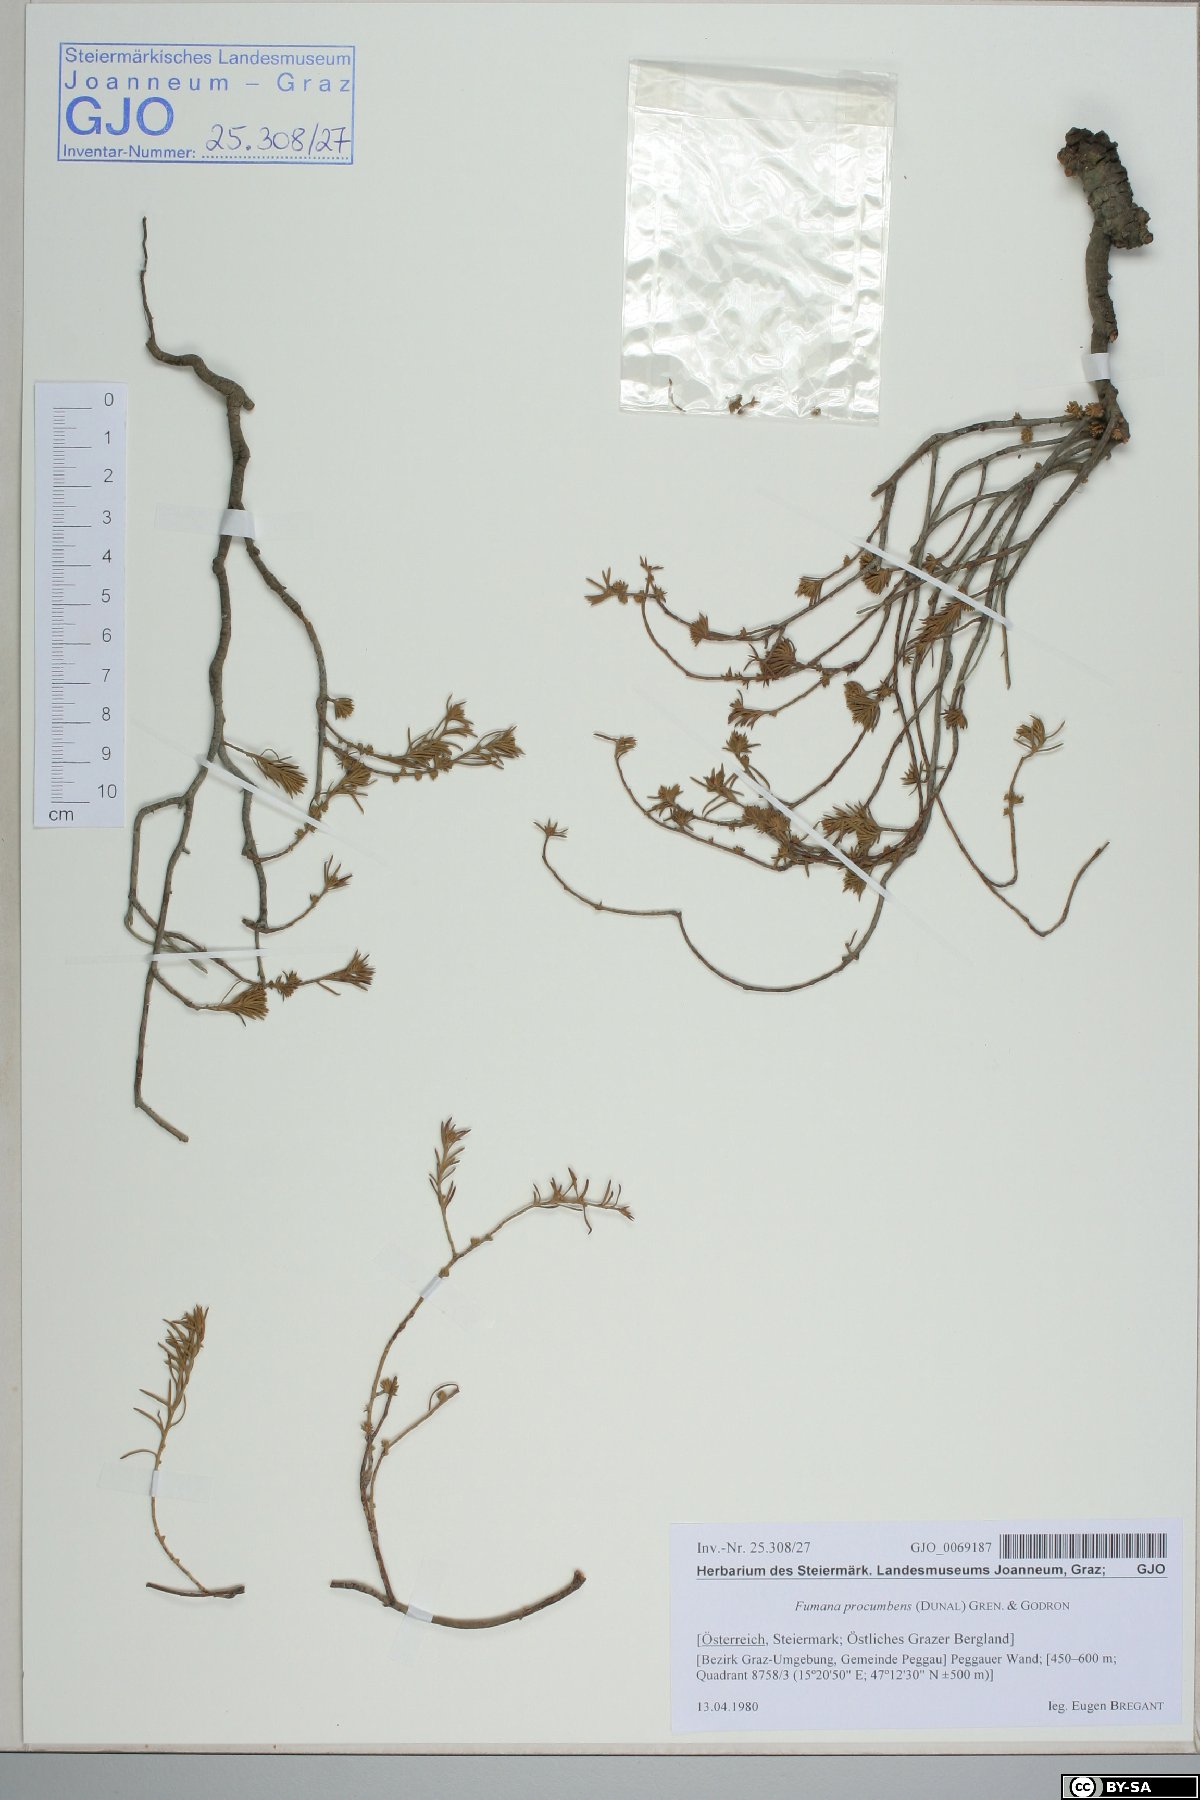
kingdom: Plantae
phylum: Tracheophyta
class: Magnoliopsida
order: Malvales
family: Cistaceae
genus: Fumana
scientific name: Fumana procumbens
